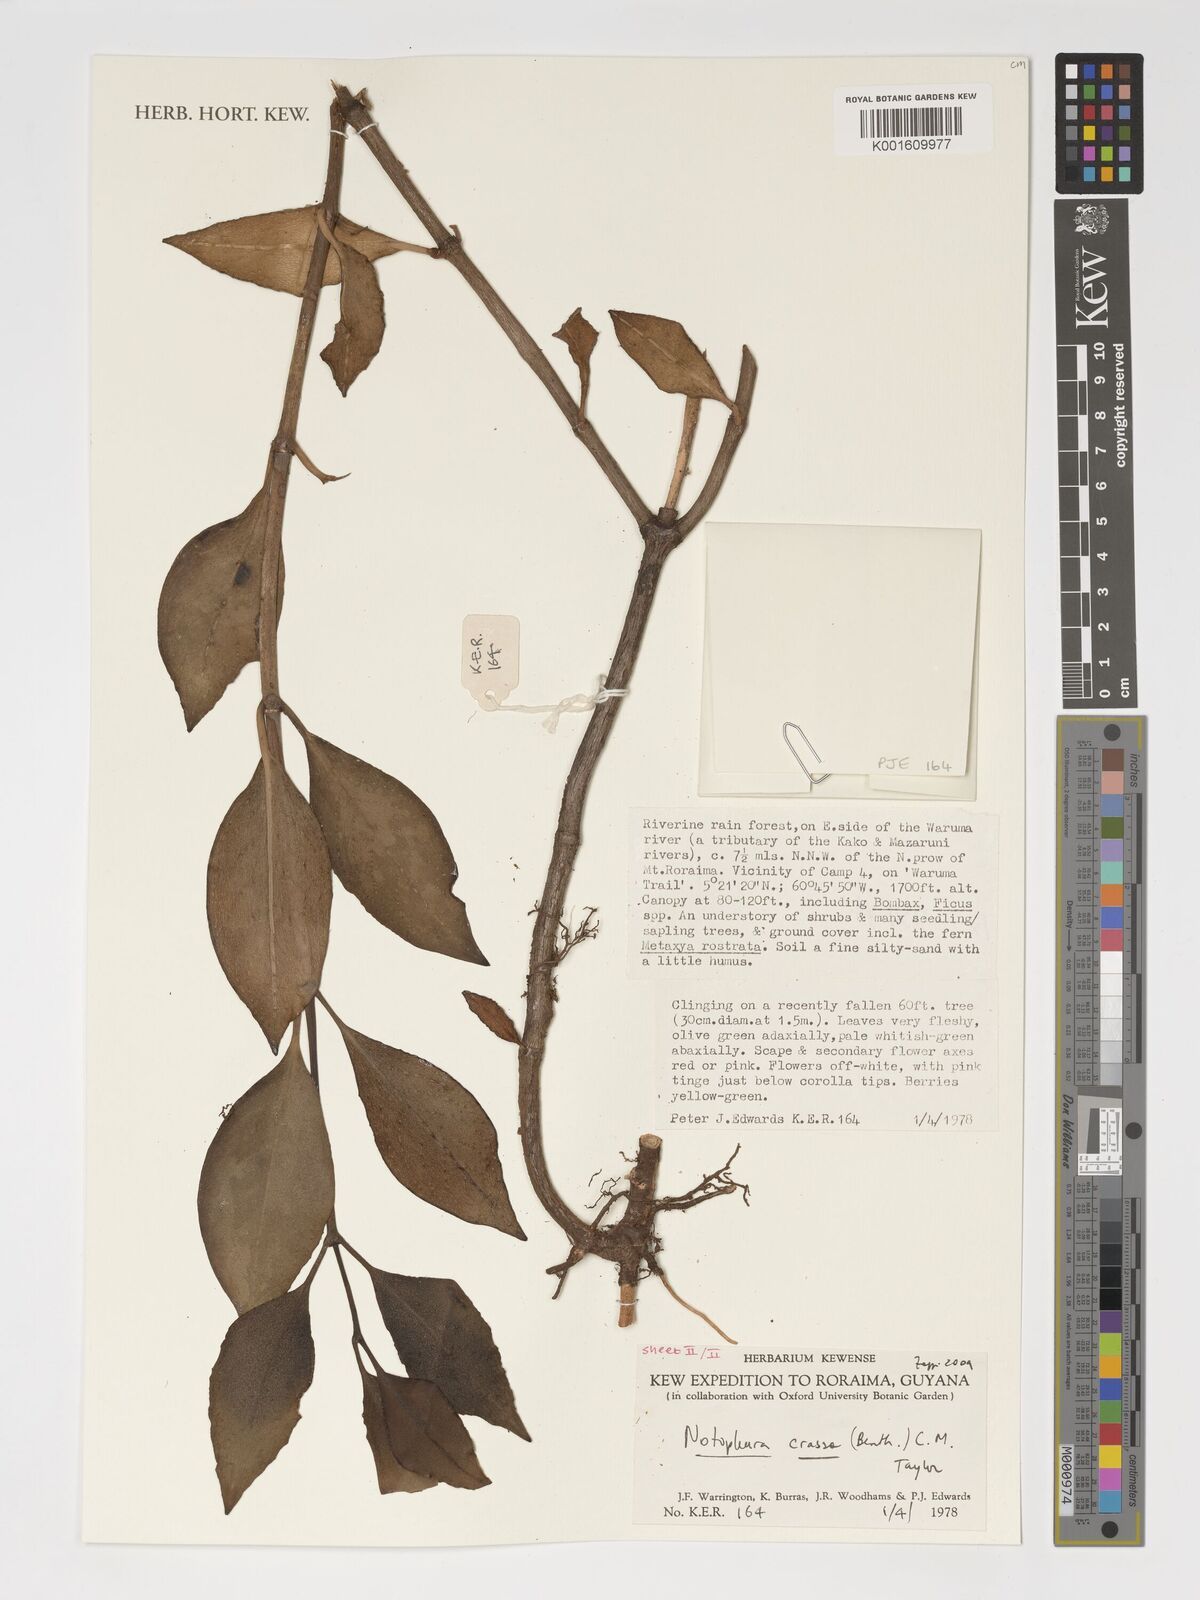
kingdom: Plantae
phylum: Tracheophyta
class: Magnoliopsida
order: Gentianales
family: Rubiaceae
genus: Notopleura
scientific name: Notopleura crassa
